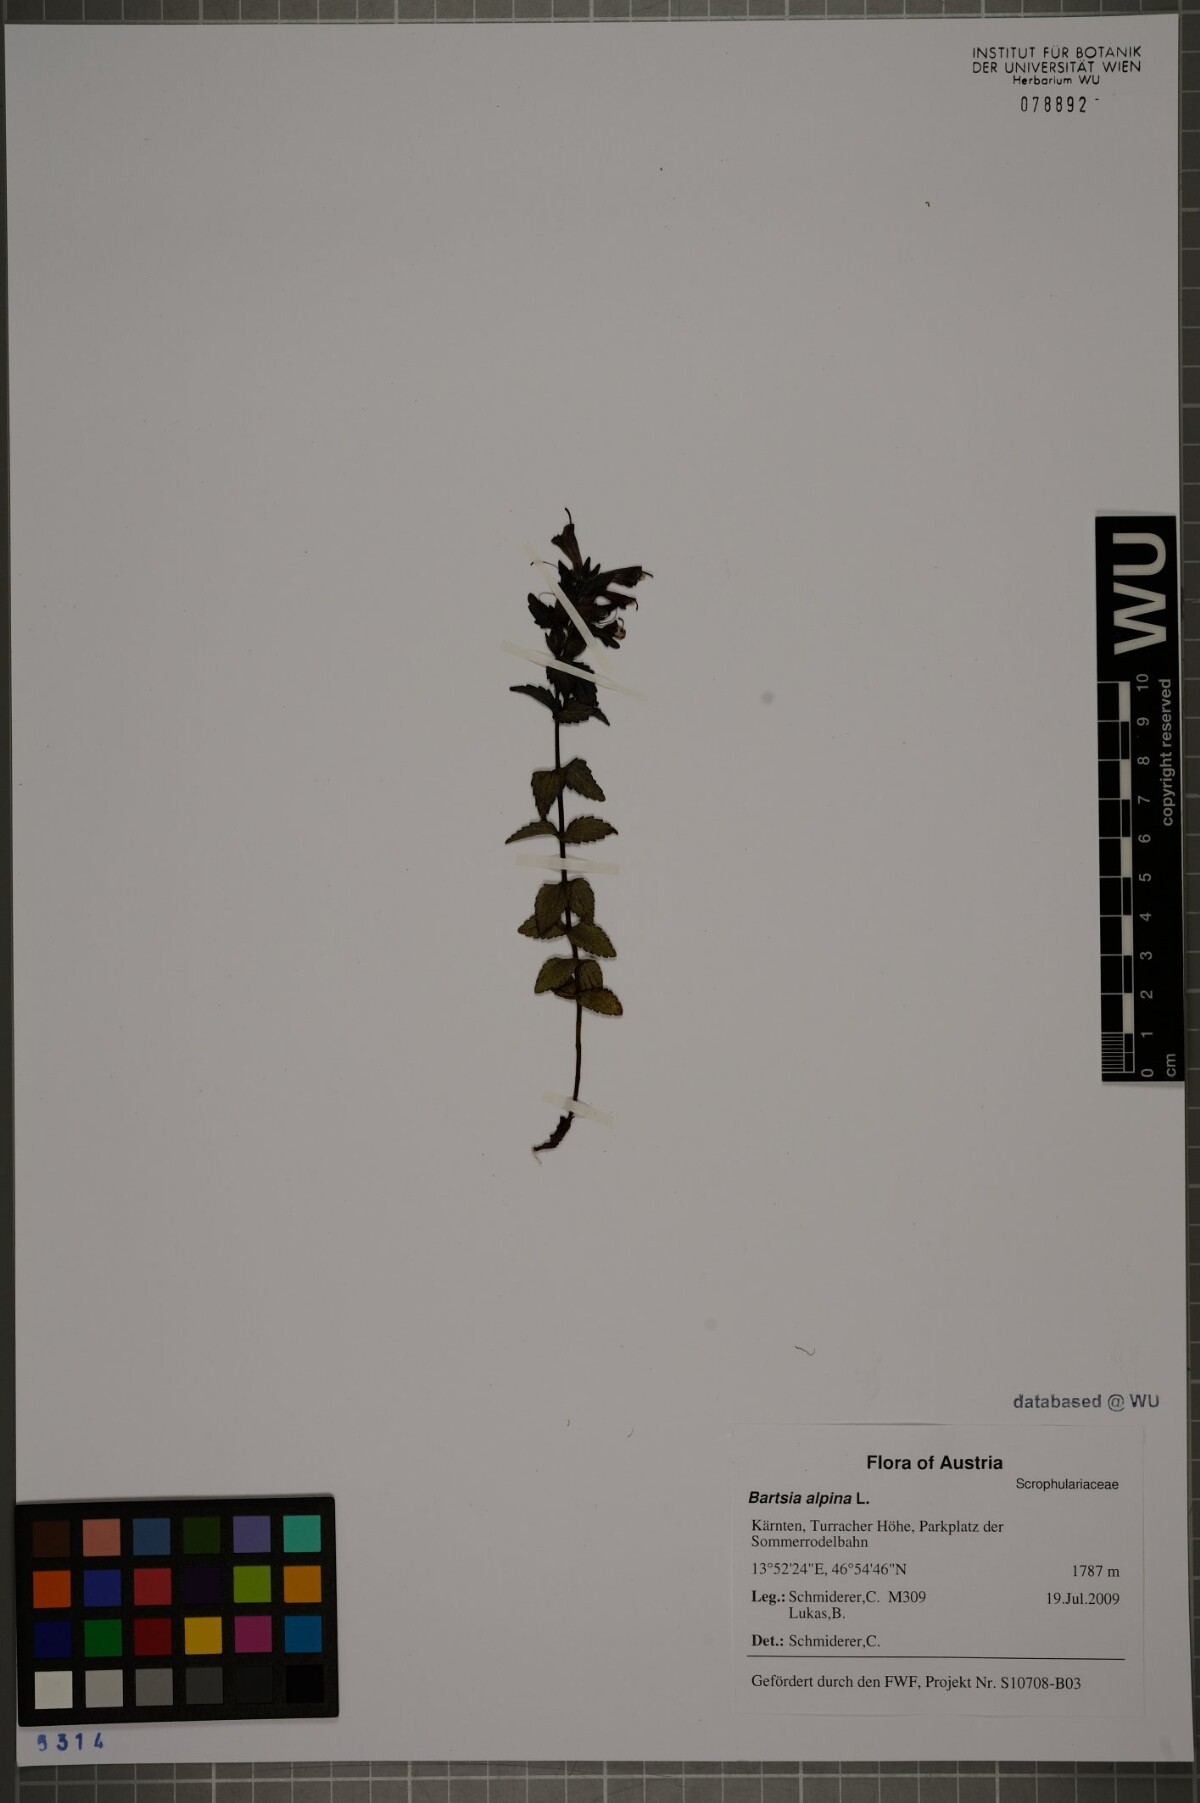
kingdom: Plantae
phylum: Tracheophyta
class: Magnoliopsida
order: Lamiales
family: Orobanchaceae
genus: Bartsia
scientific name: Bartsia alpina
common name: Alpine bartsia
